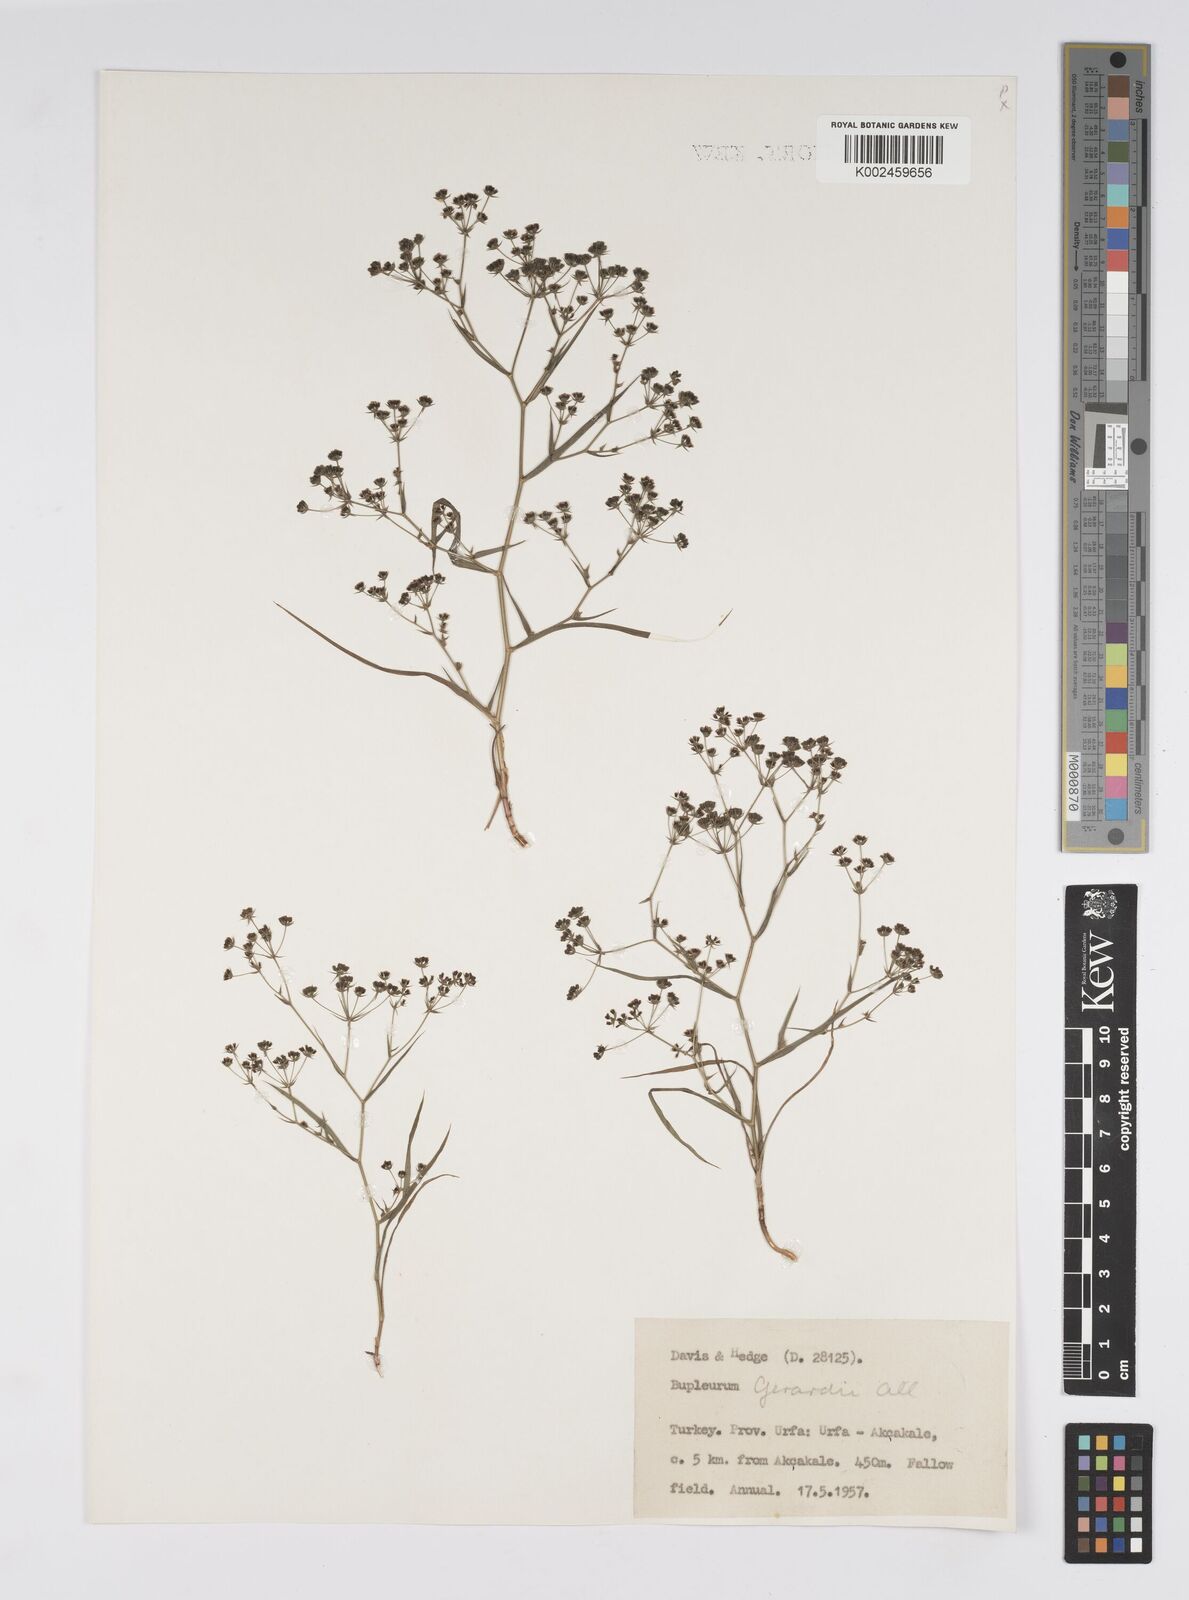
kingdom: Plantae
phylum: Tracheophyta
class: Magnoliopsida
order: Apiales
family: Apiaceae
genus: Bupleurum
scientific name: Bupleurum gerardi
